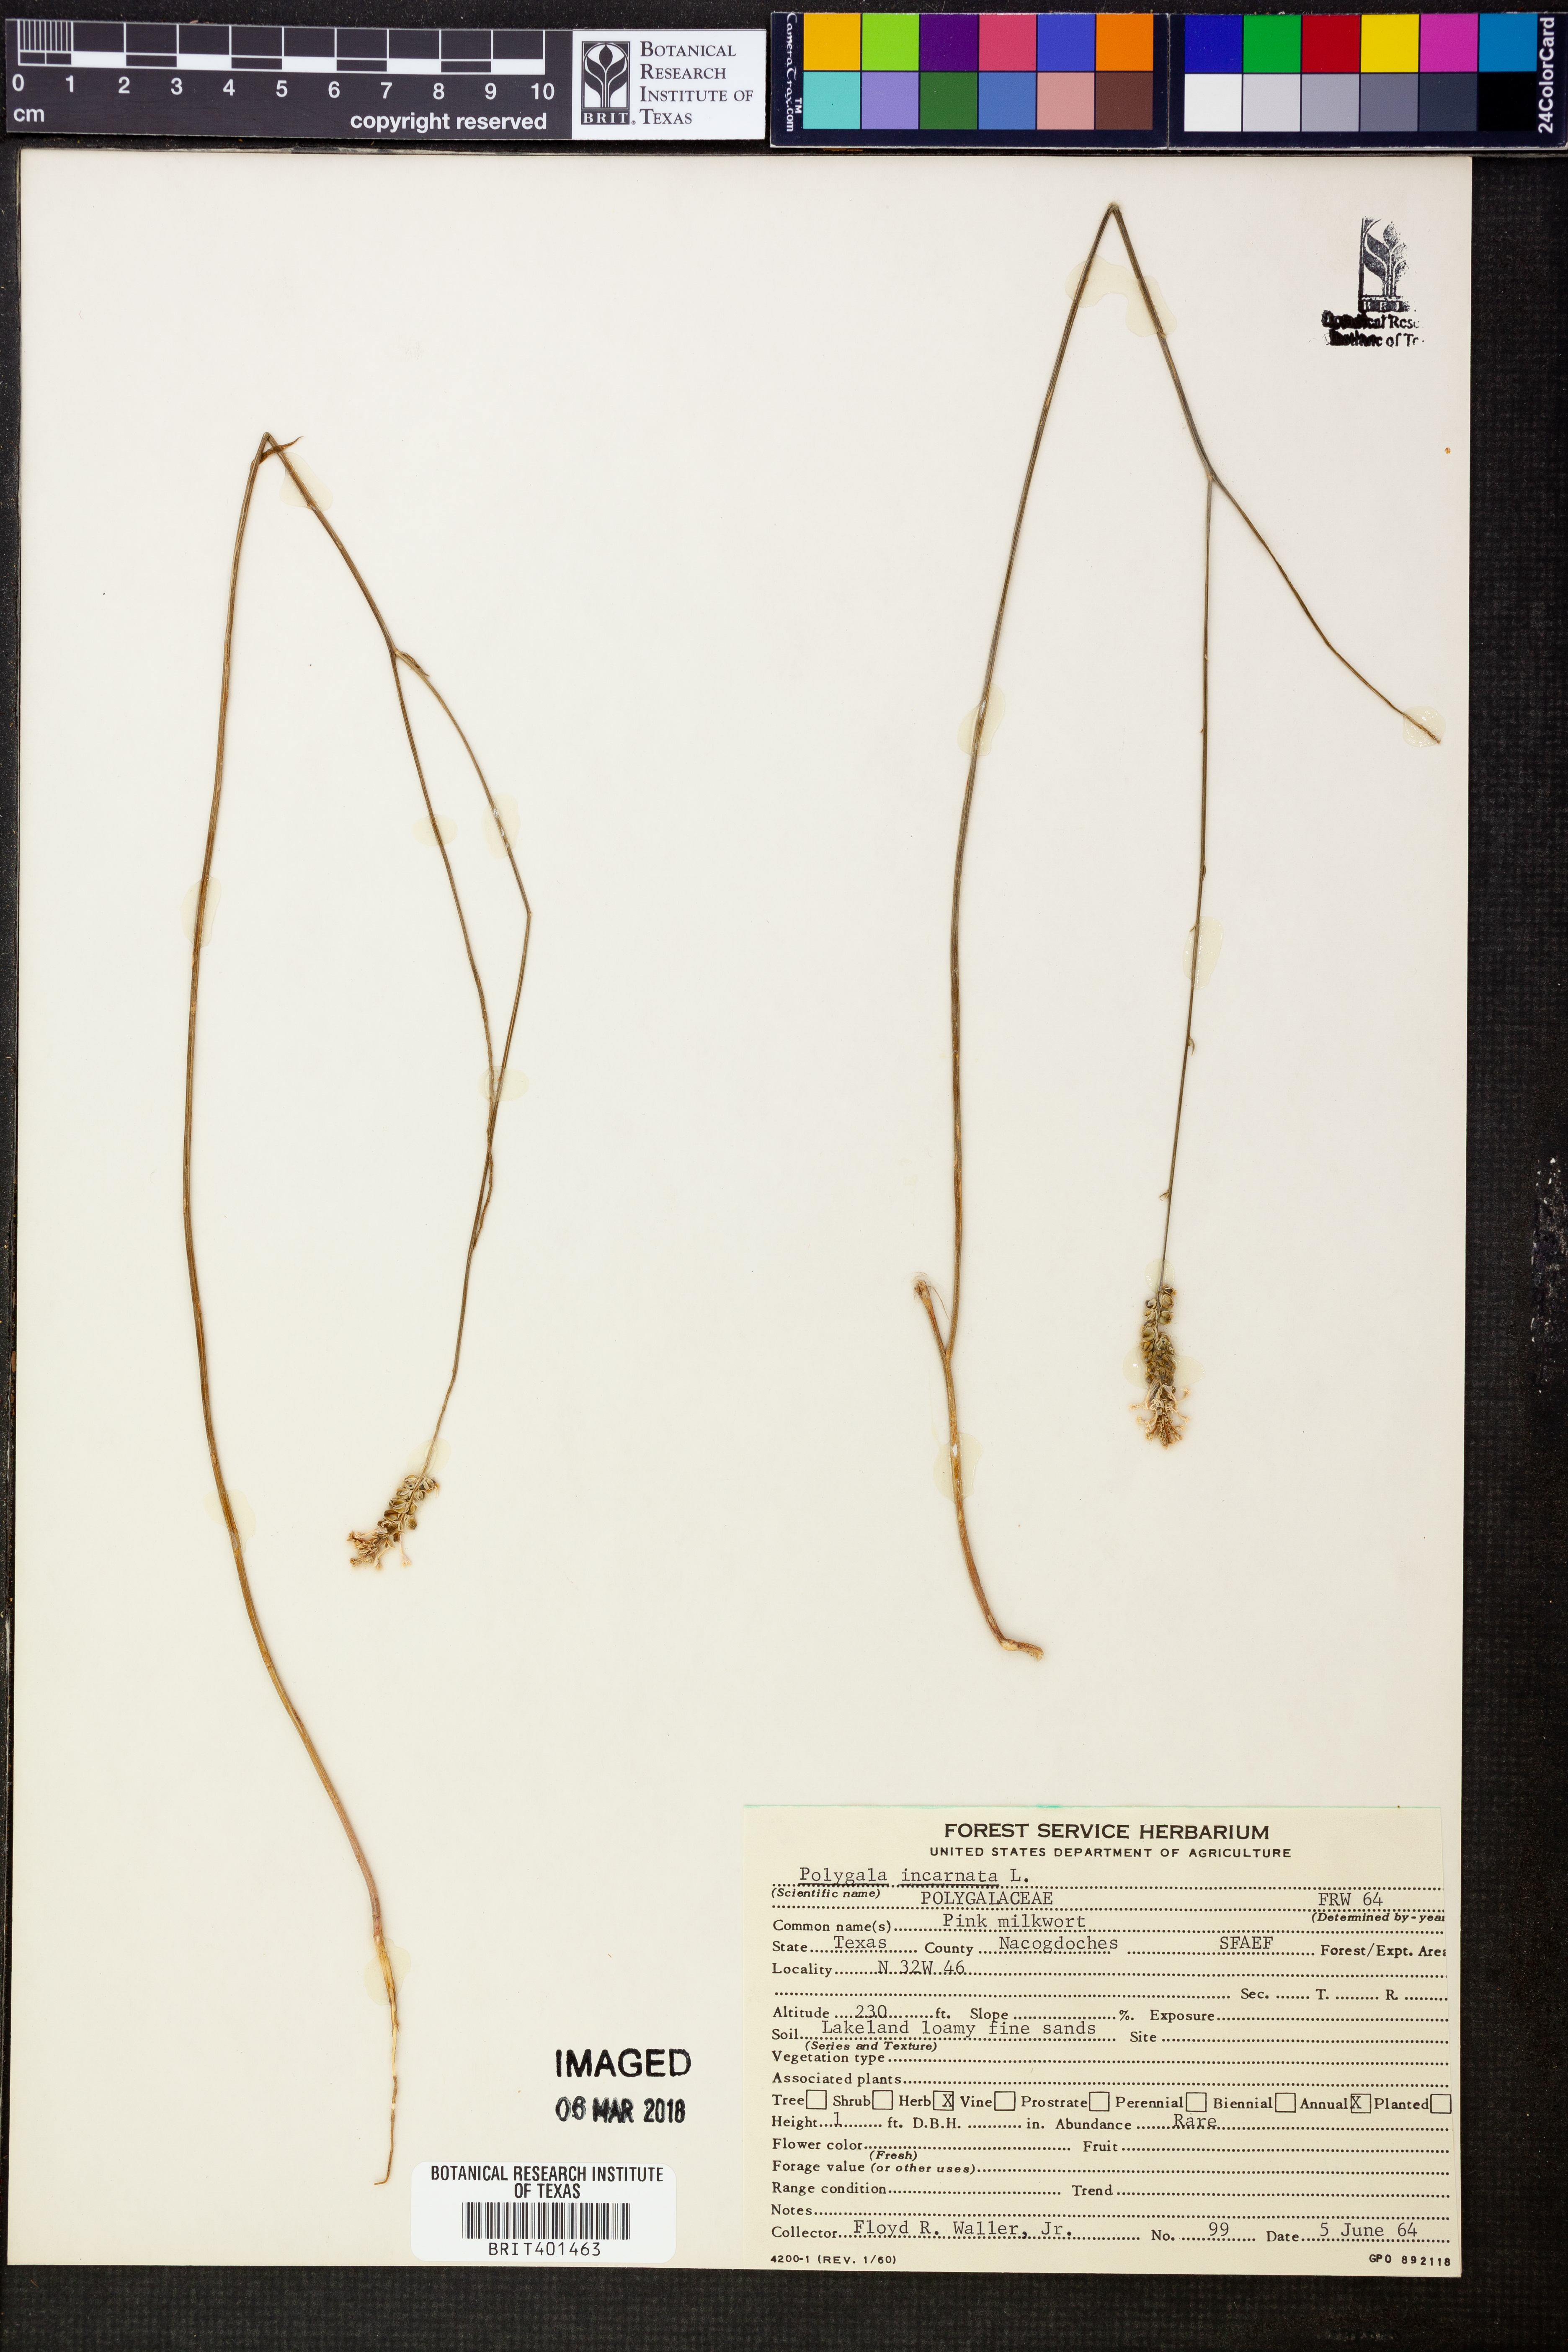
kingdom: Plantae
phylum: Tracheophyta
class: Magnoliopsida
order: Fabales
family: Polygalaceae
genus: Polygala
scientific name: Polygala incarnata
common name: Pink milkwort
